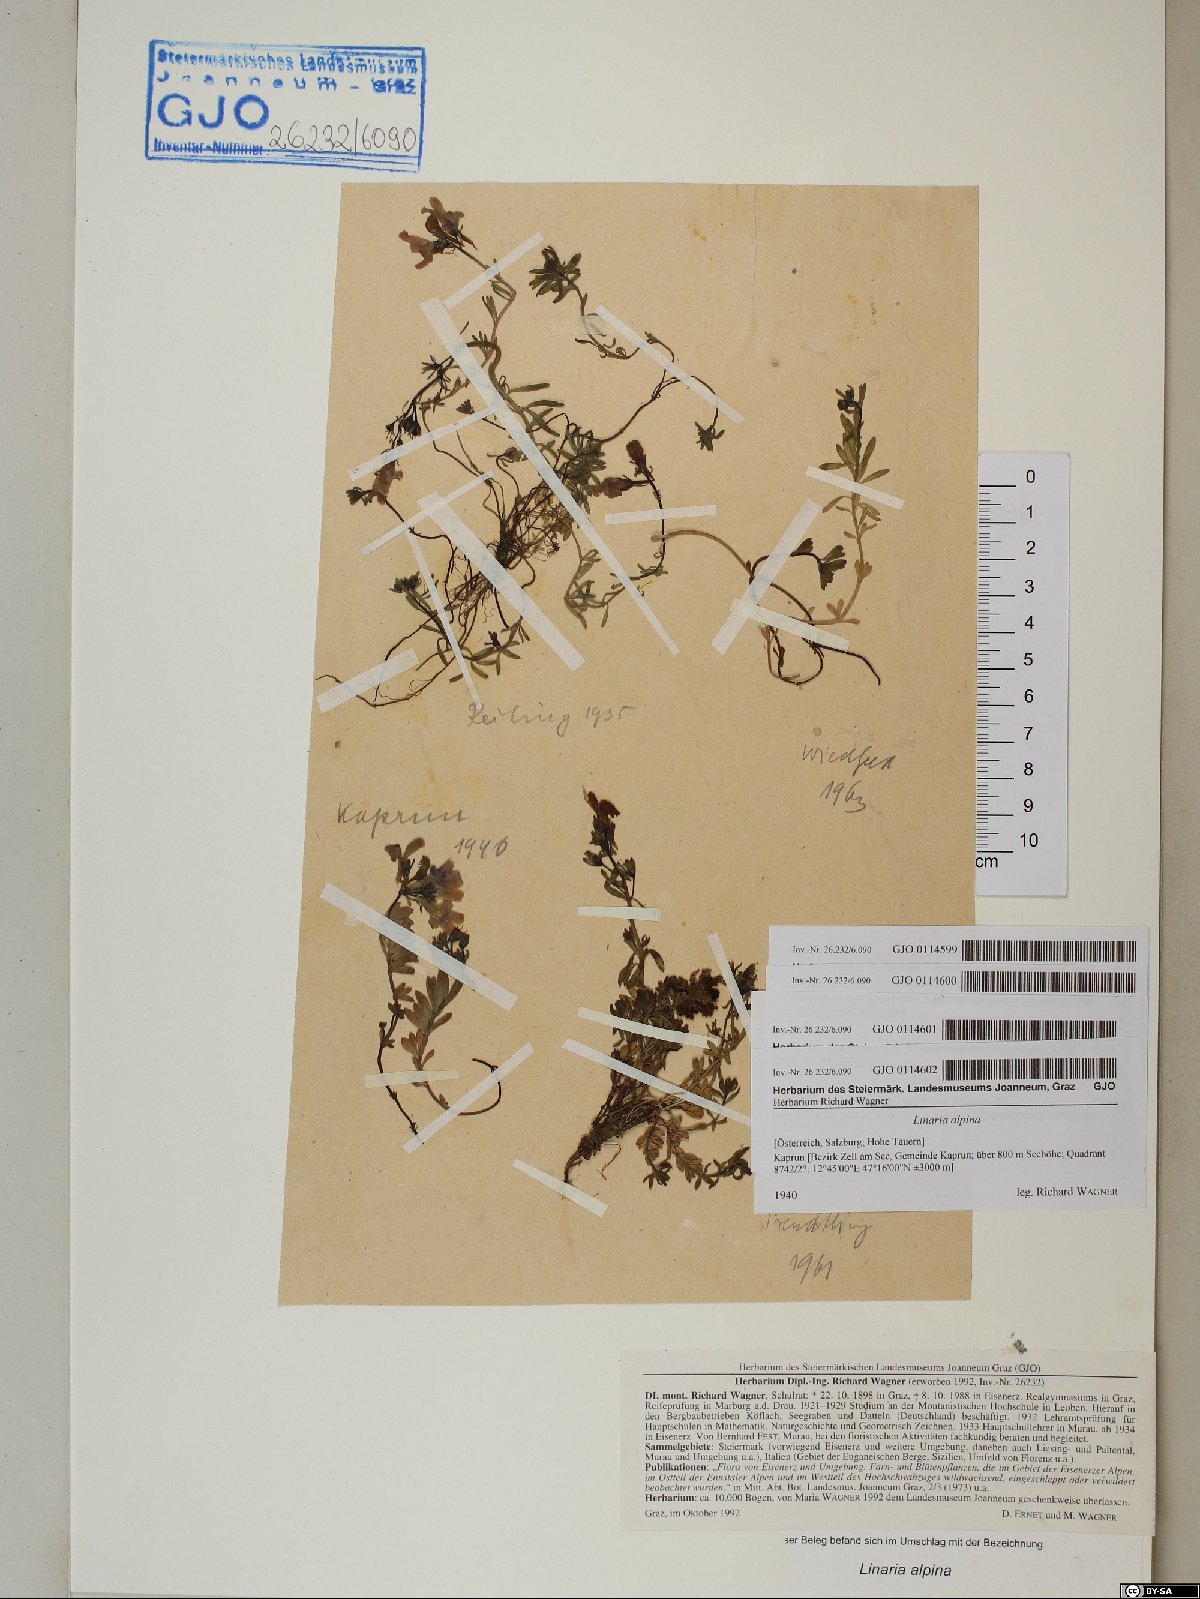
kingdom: Plantae
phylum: Tracheophyta
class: Magnoliopsida
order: Lamiales
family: Plantaginaceae
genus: Linaria
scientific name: Linaria alpina
